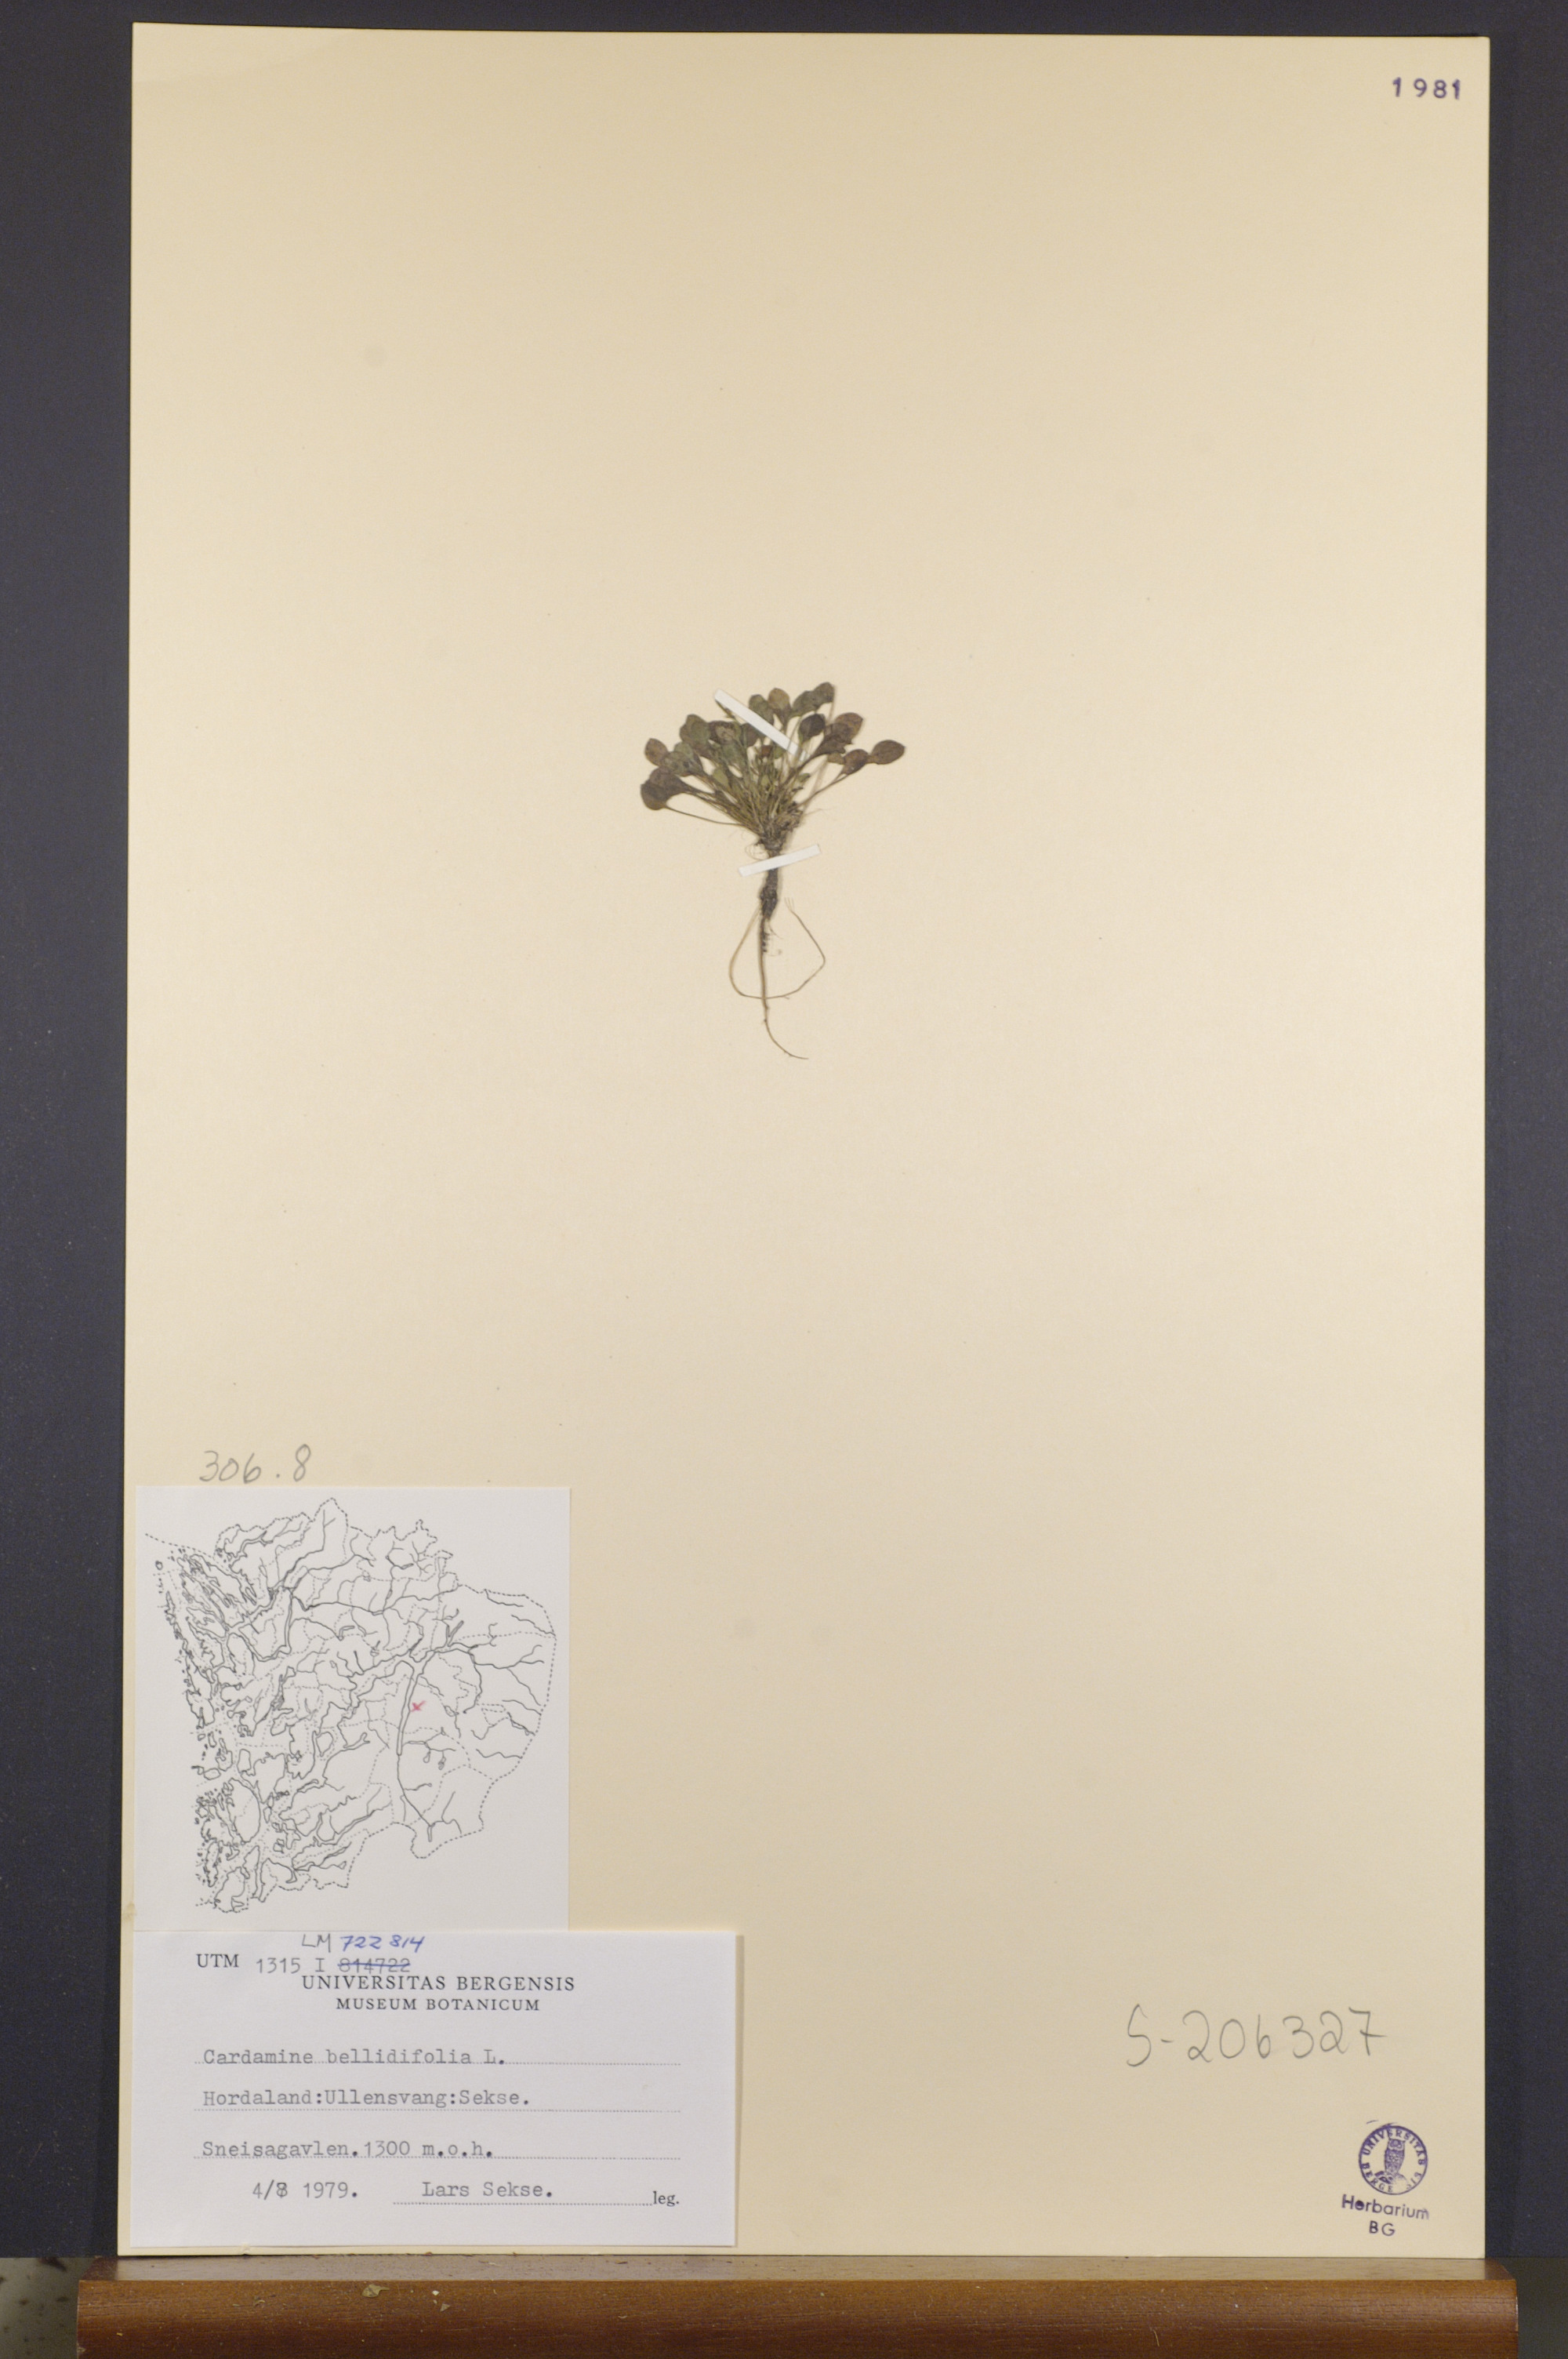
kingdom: Plantae
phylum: Tracheophyta
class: Magnoliopsida
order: Brassicales
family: Brassicaceae
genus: Cardamine
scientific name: Cardamine bellidifolia
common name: Alpine bittercress
